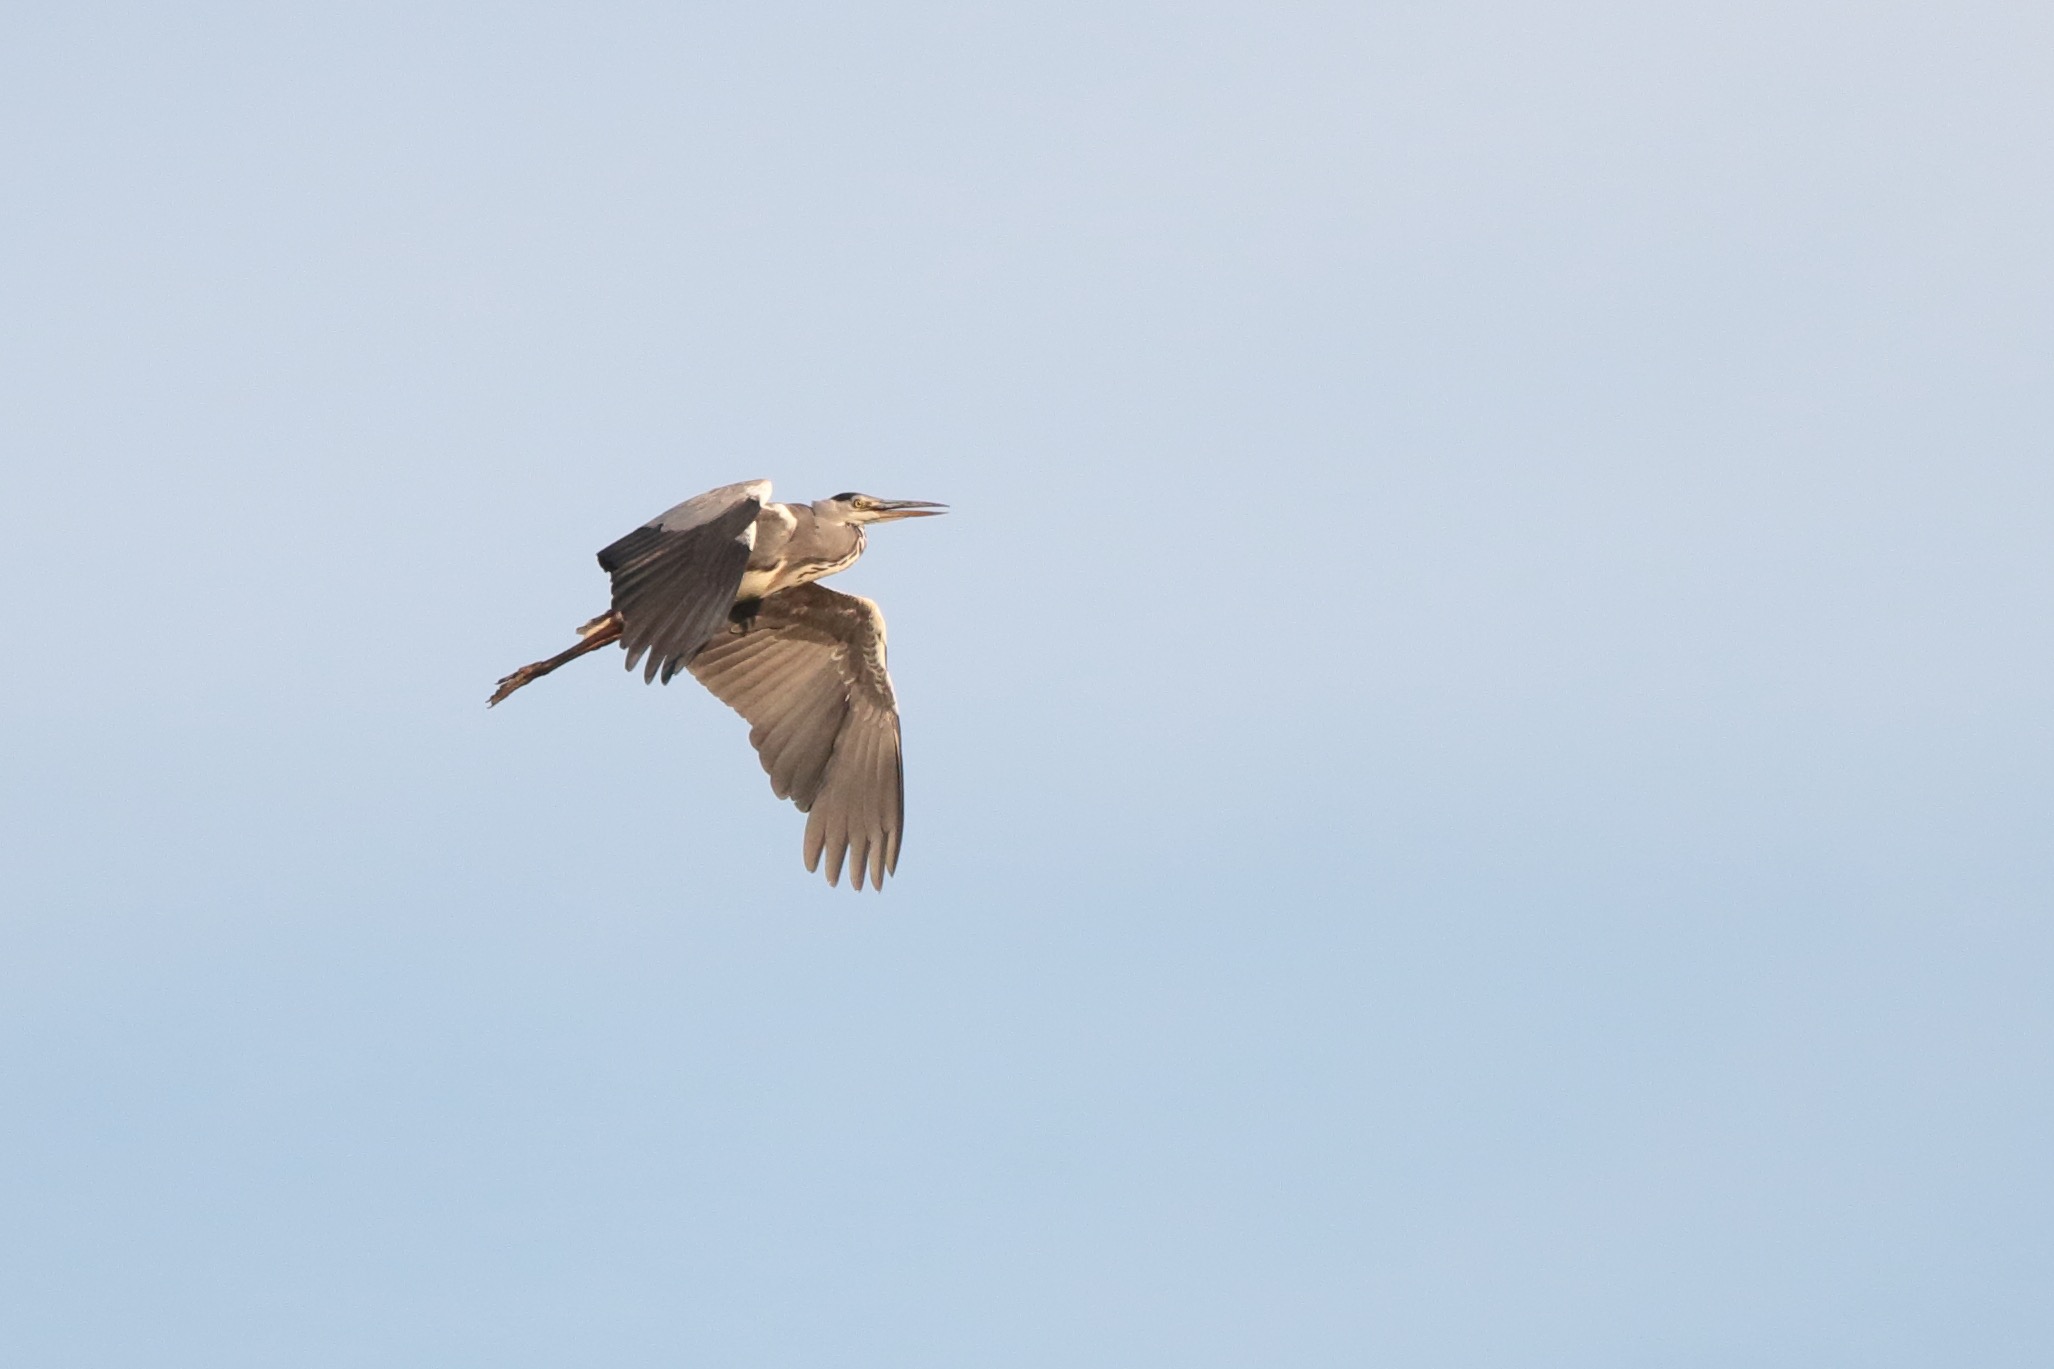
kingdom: Animalia
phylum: Chordata
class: Aves
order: Pelecaniformes
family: Ardeidae
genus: Ardea
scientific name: Ardea cinerea
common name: Fiskehejre
